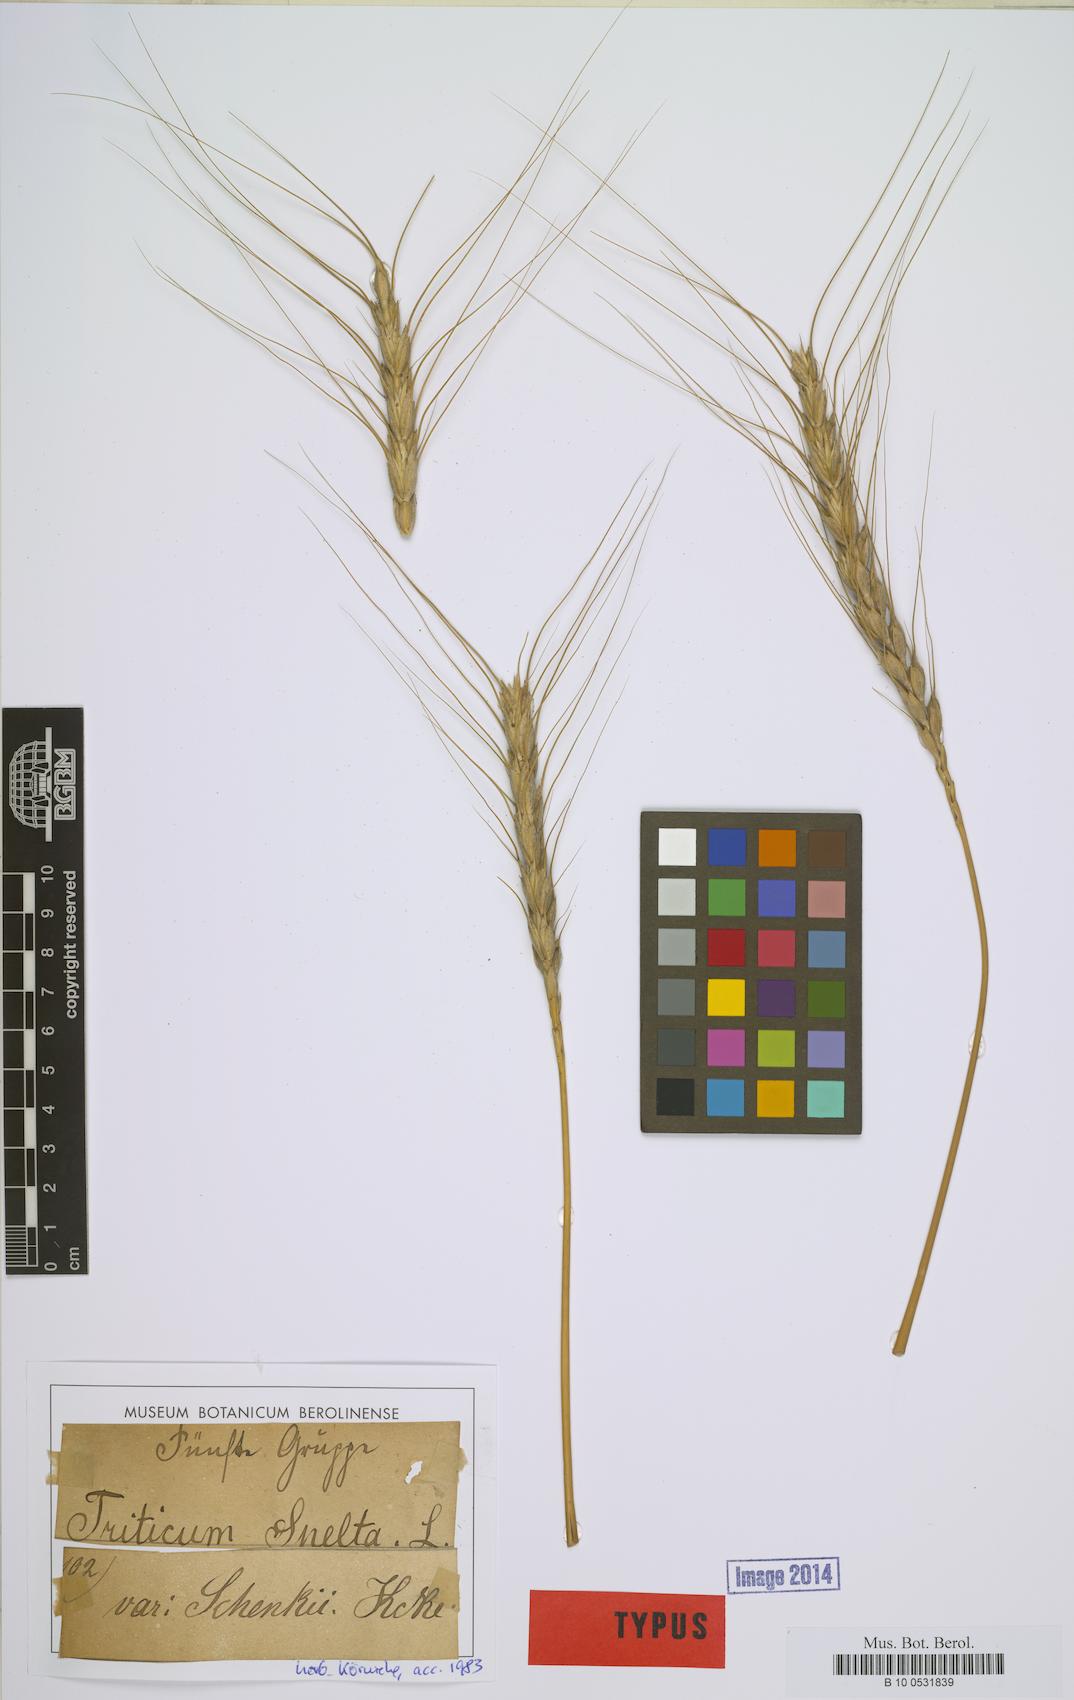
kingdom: Plantae
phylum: Tracheophyta
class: Liliopsida
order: Poales
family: Poaceae
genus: Triticum
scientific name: Triticum aestivum
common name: Common wheat
